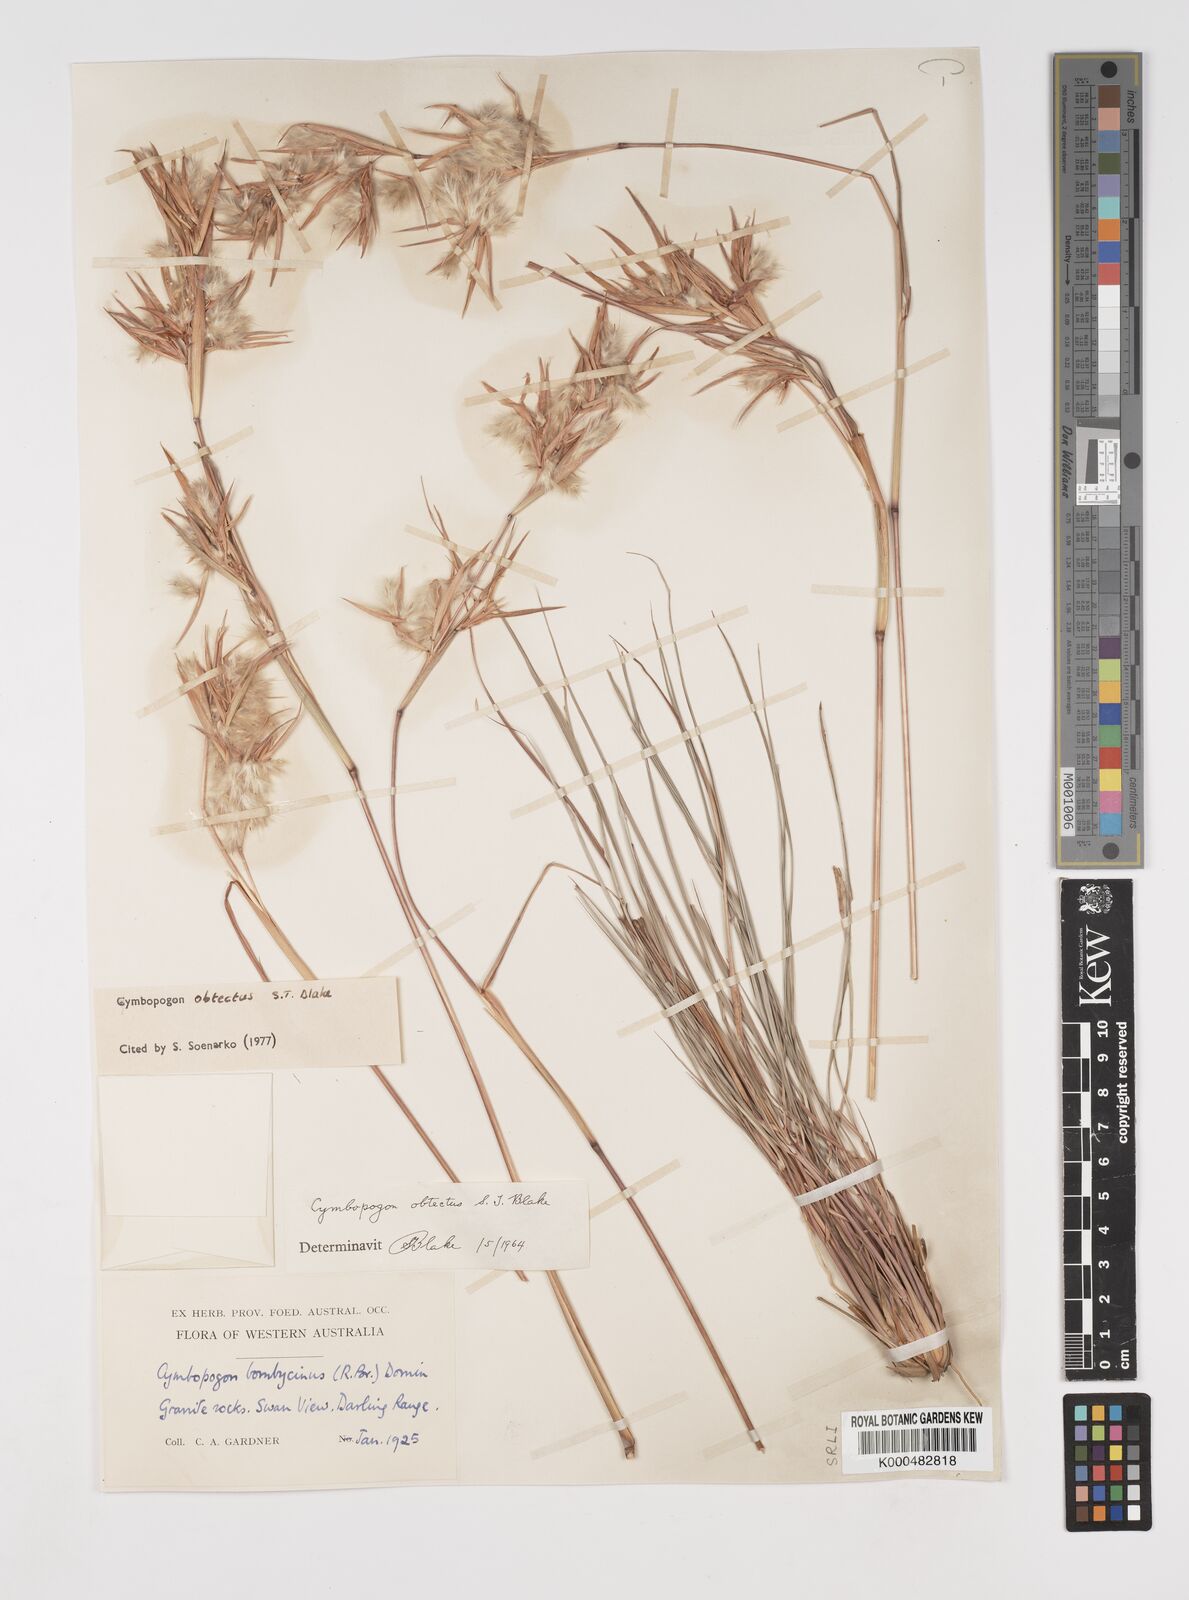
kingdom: Plantae
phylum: Tracheophyta
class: Liliopsida
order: Poales
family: Poaceae
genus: Cymbopogon
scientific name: Cymbopogon obtectus
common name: Silky heads
